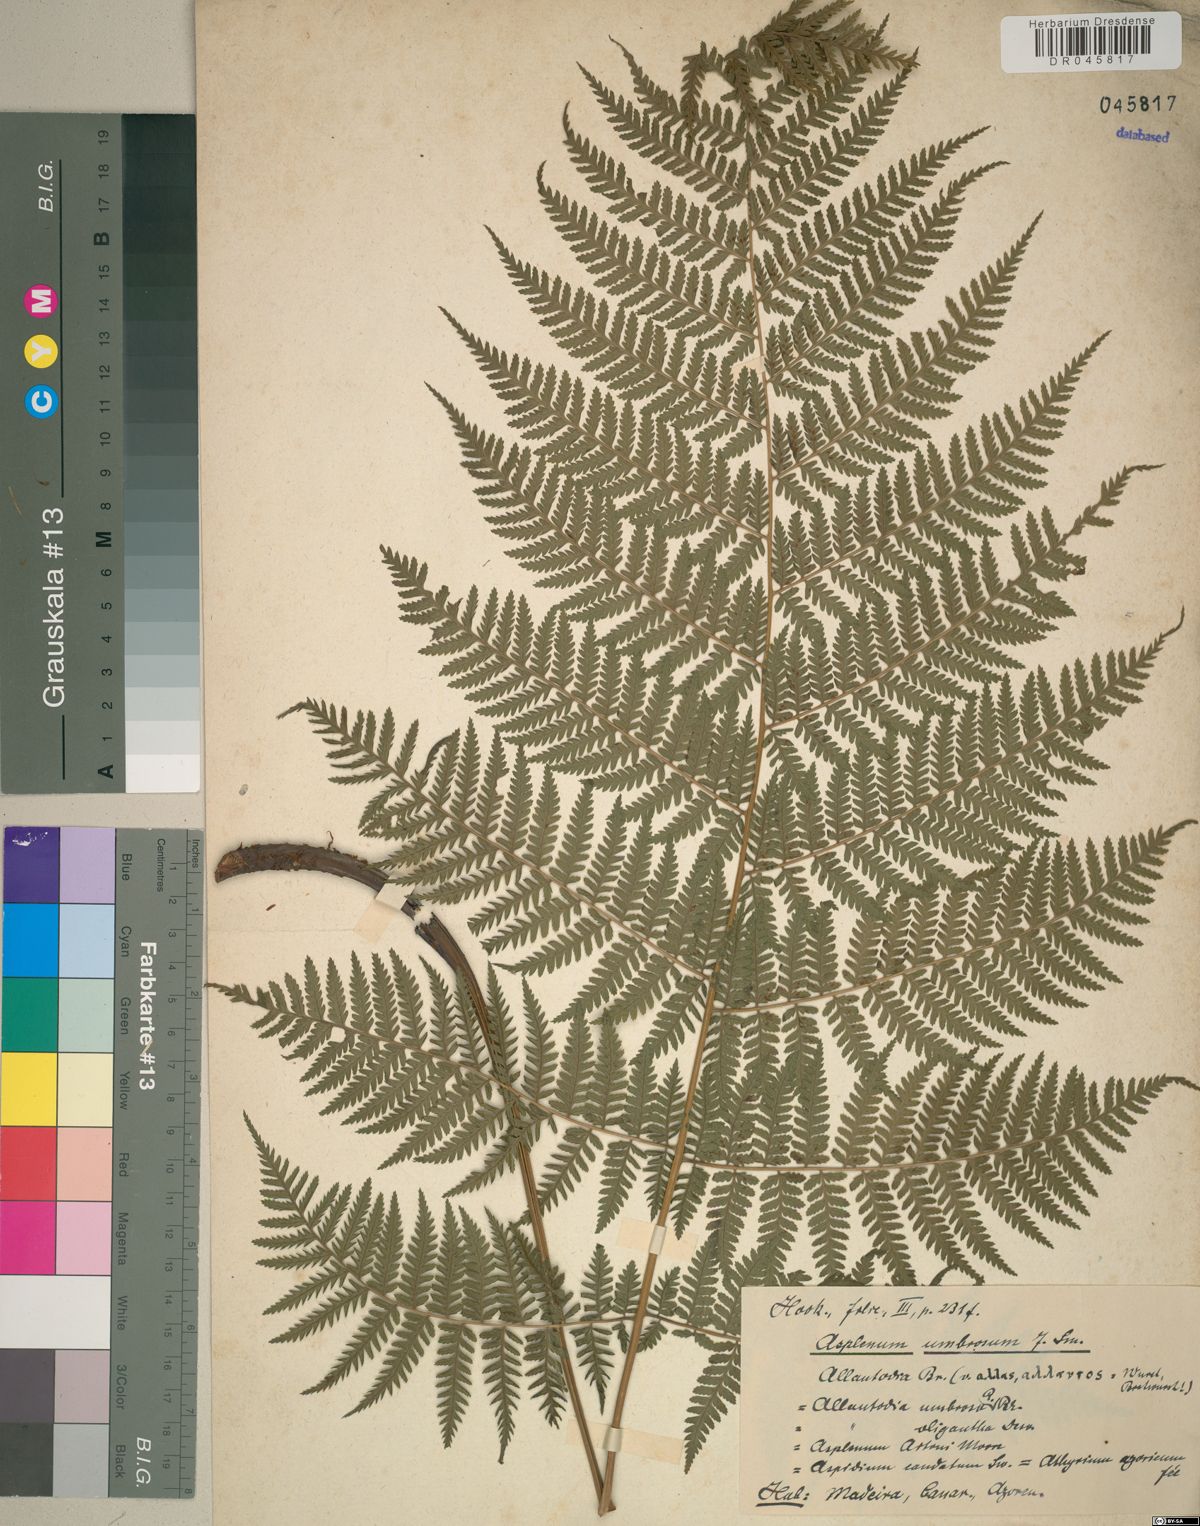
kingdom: Plantae
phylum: Tracheophyta
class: Polypodiopsida
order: Polypodiales
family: Athyriaceae
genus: Diplazium
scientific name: Diplazium caudatum
